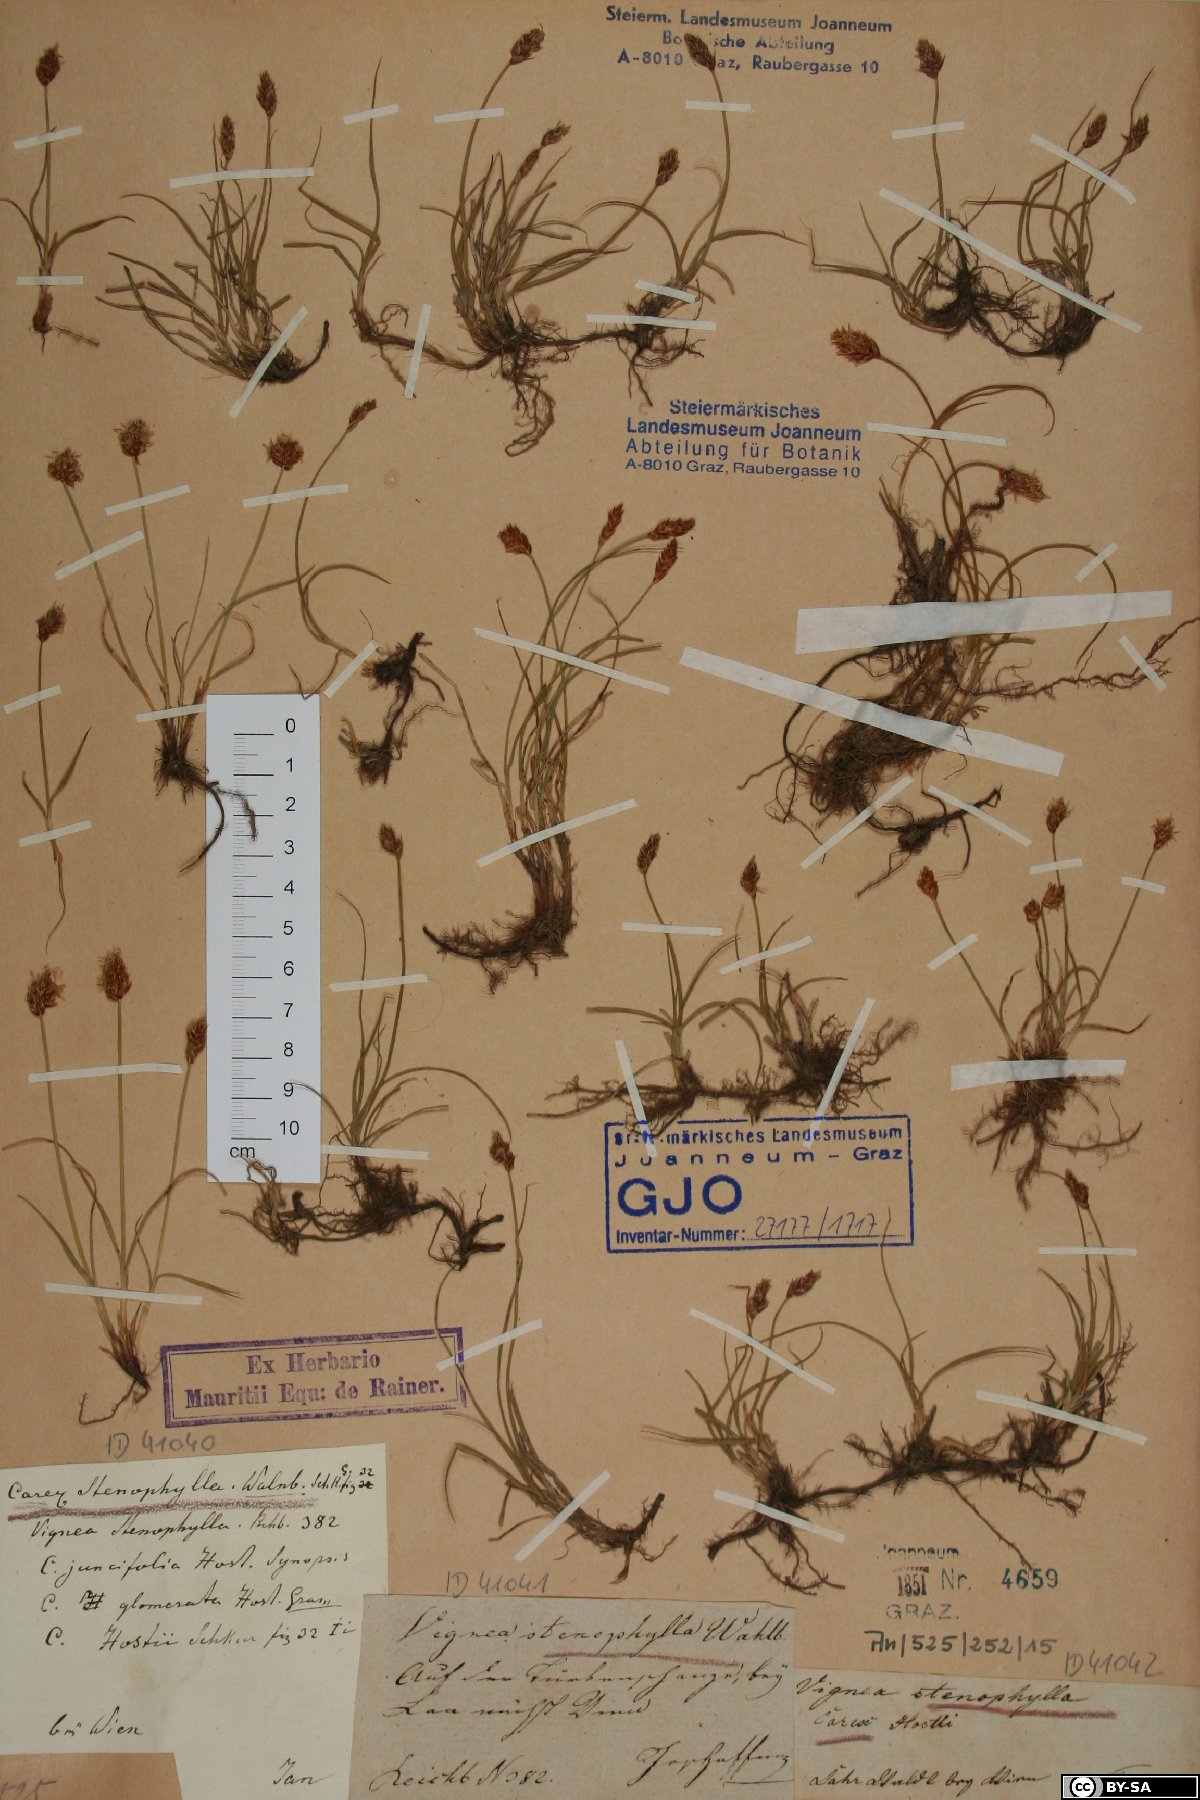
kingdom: Plantae
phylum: Tracheophyta
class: Liliopsida
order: Poales
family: Cyperaceae
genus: Carex
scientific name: Carex stenophylla
